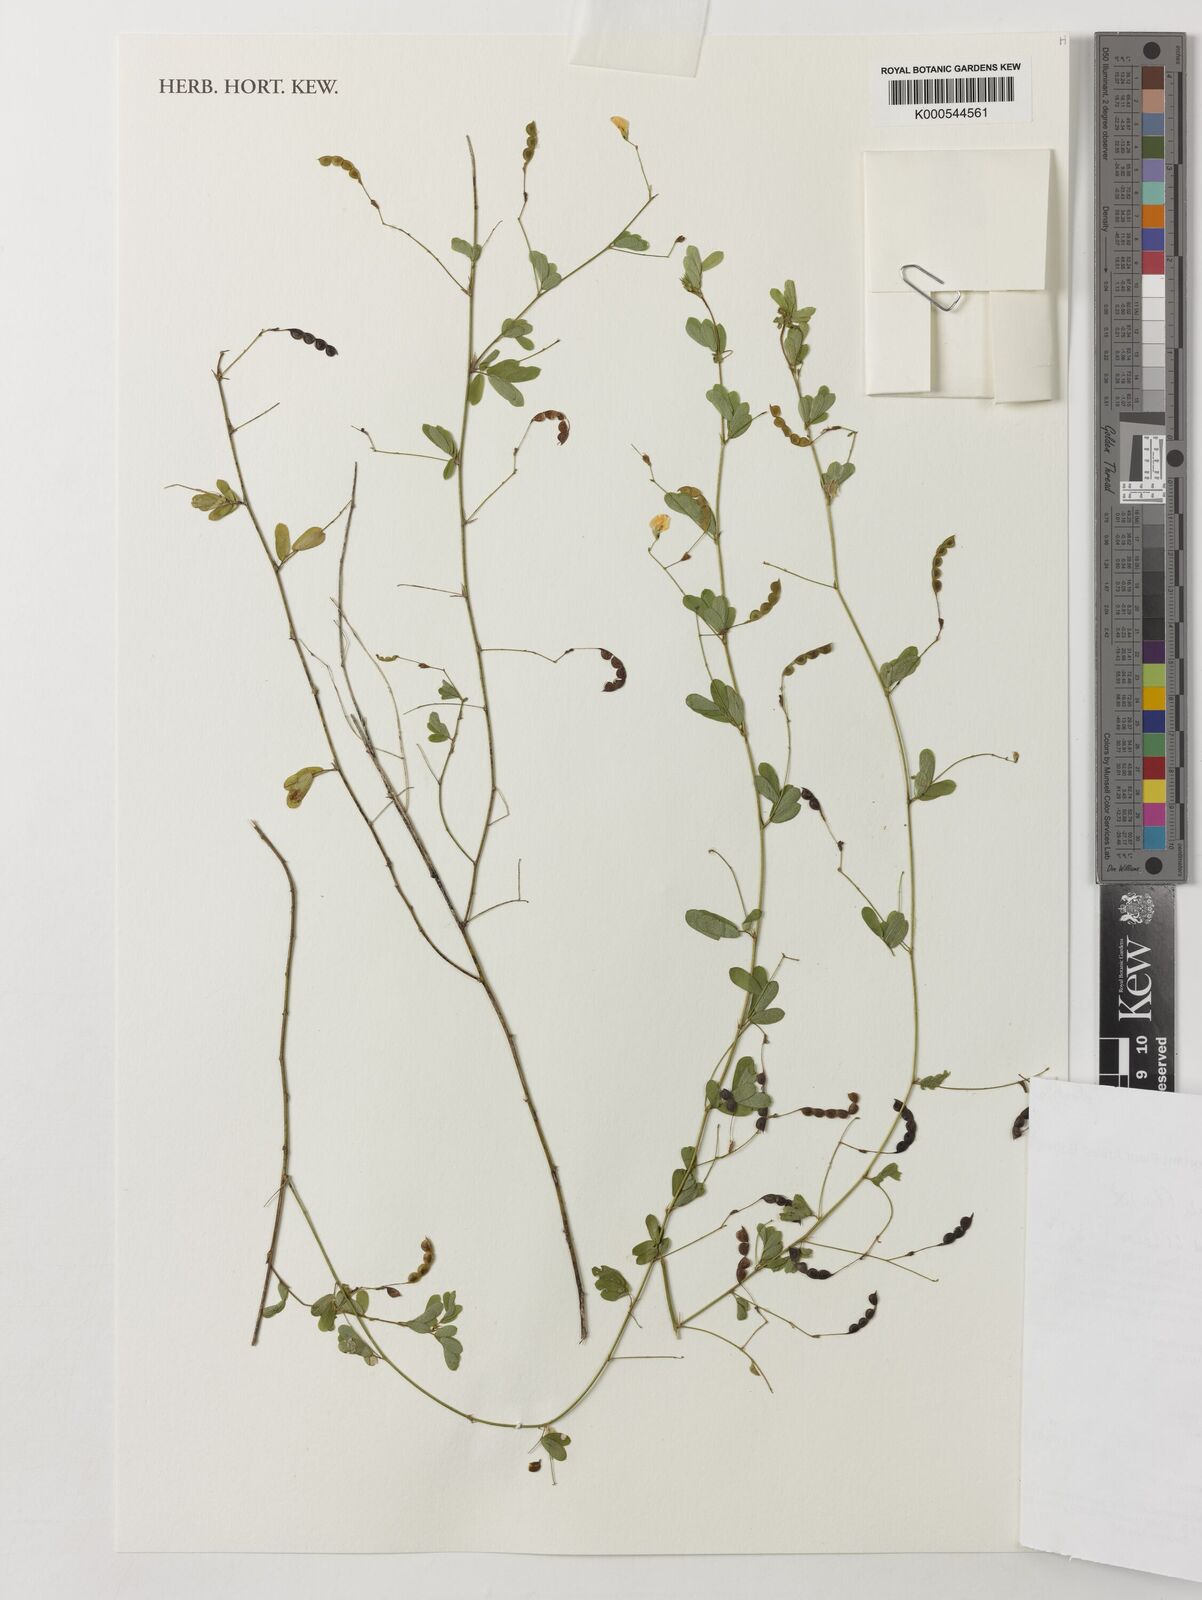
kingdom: Plantae
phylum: Tracheophyta
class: Magnoliopsida
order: Fabales
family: Fabaceae
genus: Ctenodon
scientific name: Ctenodon falcatus
